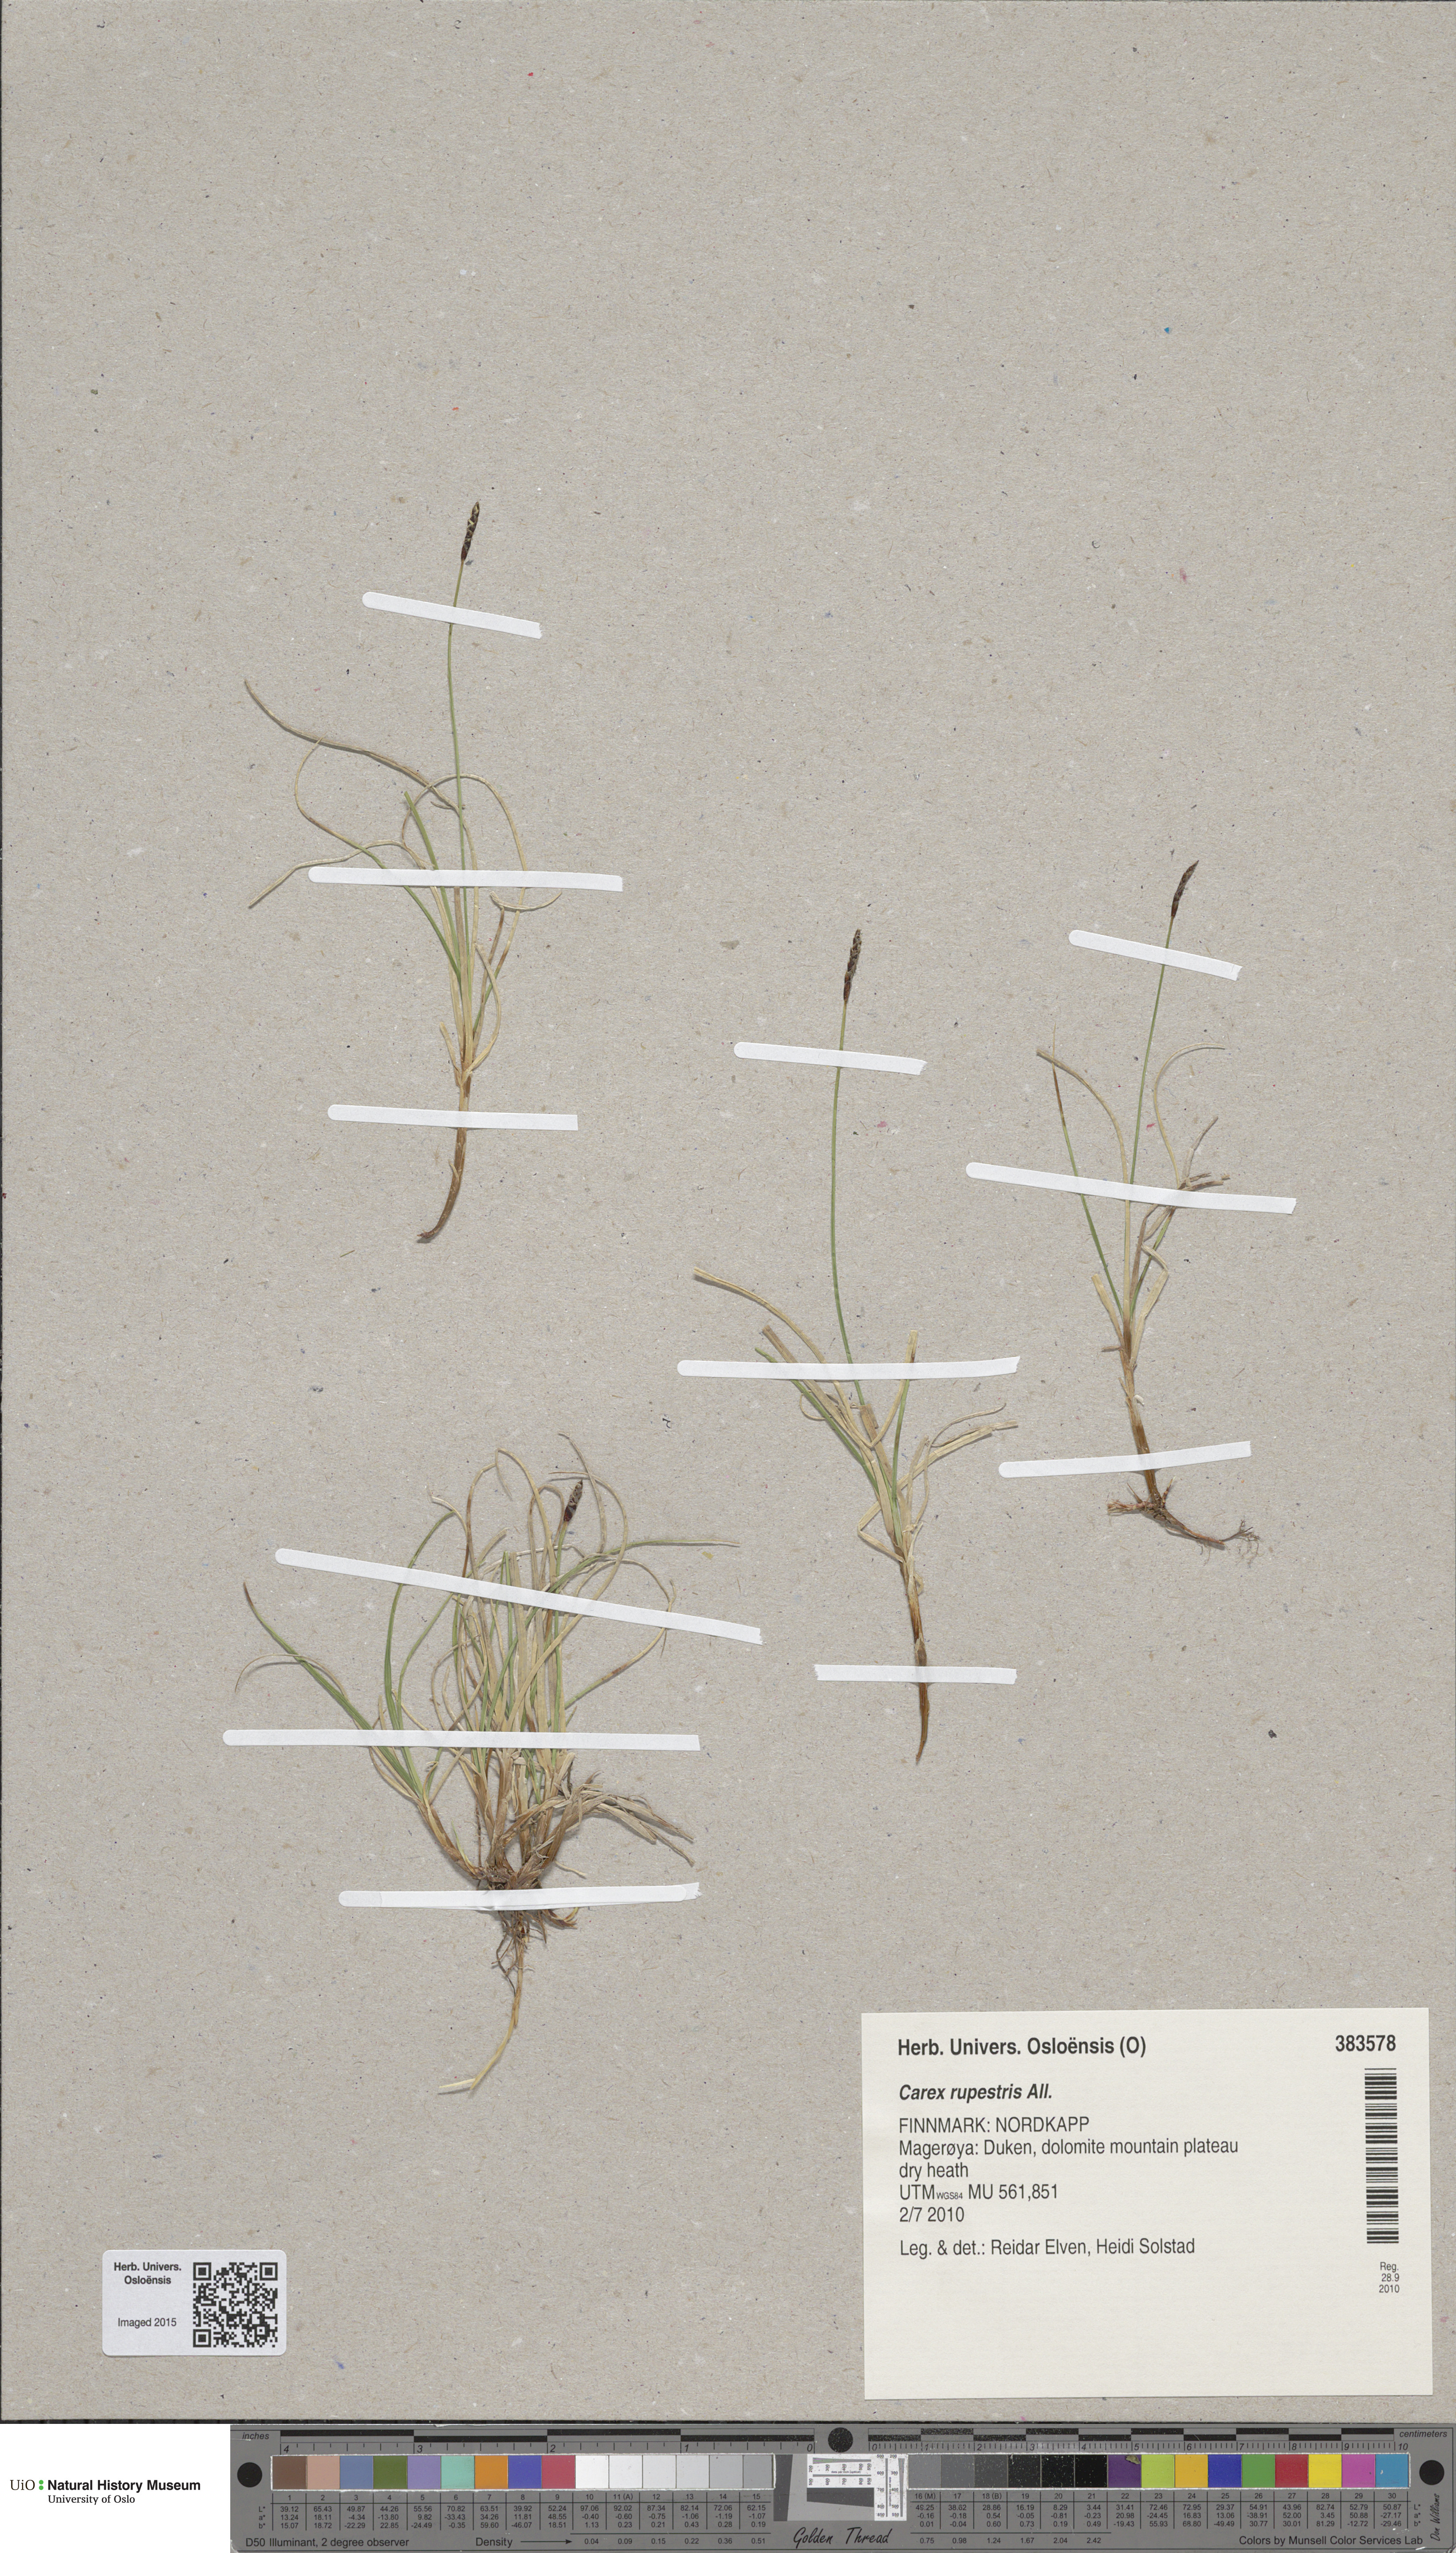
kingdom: Plantae
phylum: Tracheophyta
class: Liliopsida
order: Poales
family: Cyperaceae
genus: Carex
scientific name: Carex rupestris
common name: Rock sedge
